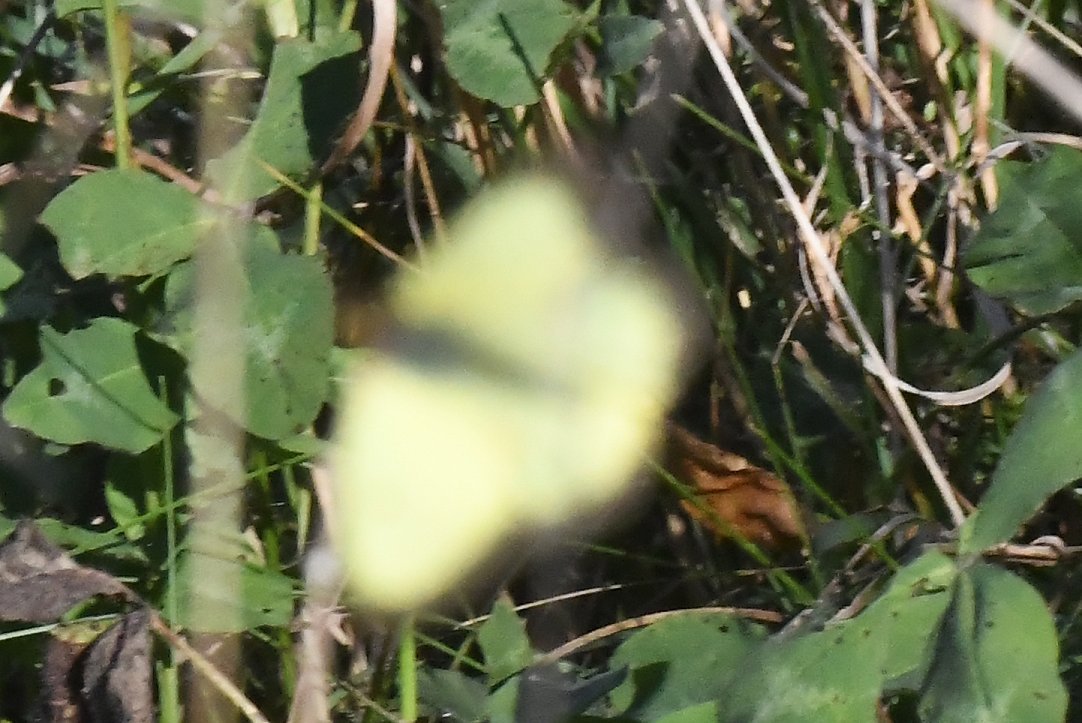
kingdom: Animalia
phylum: Arthropoda
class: Insecta
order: Lepidoptera
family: Pieridae
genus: Colias
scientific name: Colias philodice
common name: Clouded Sulphur
